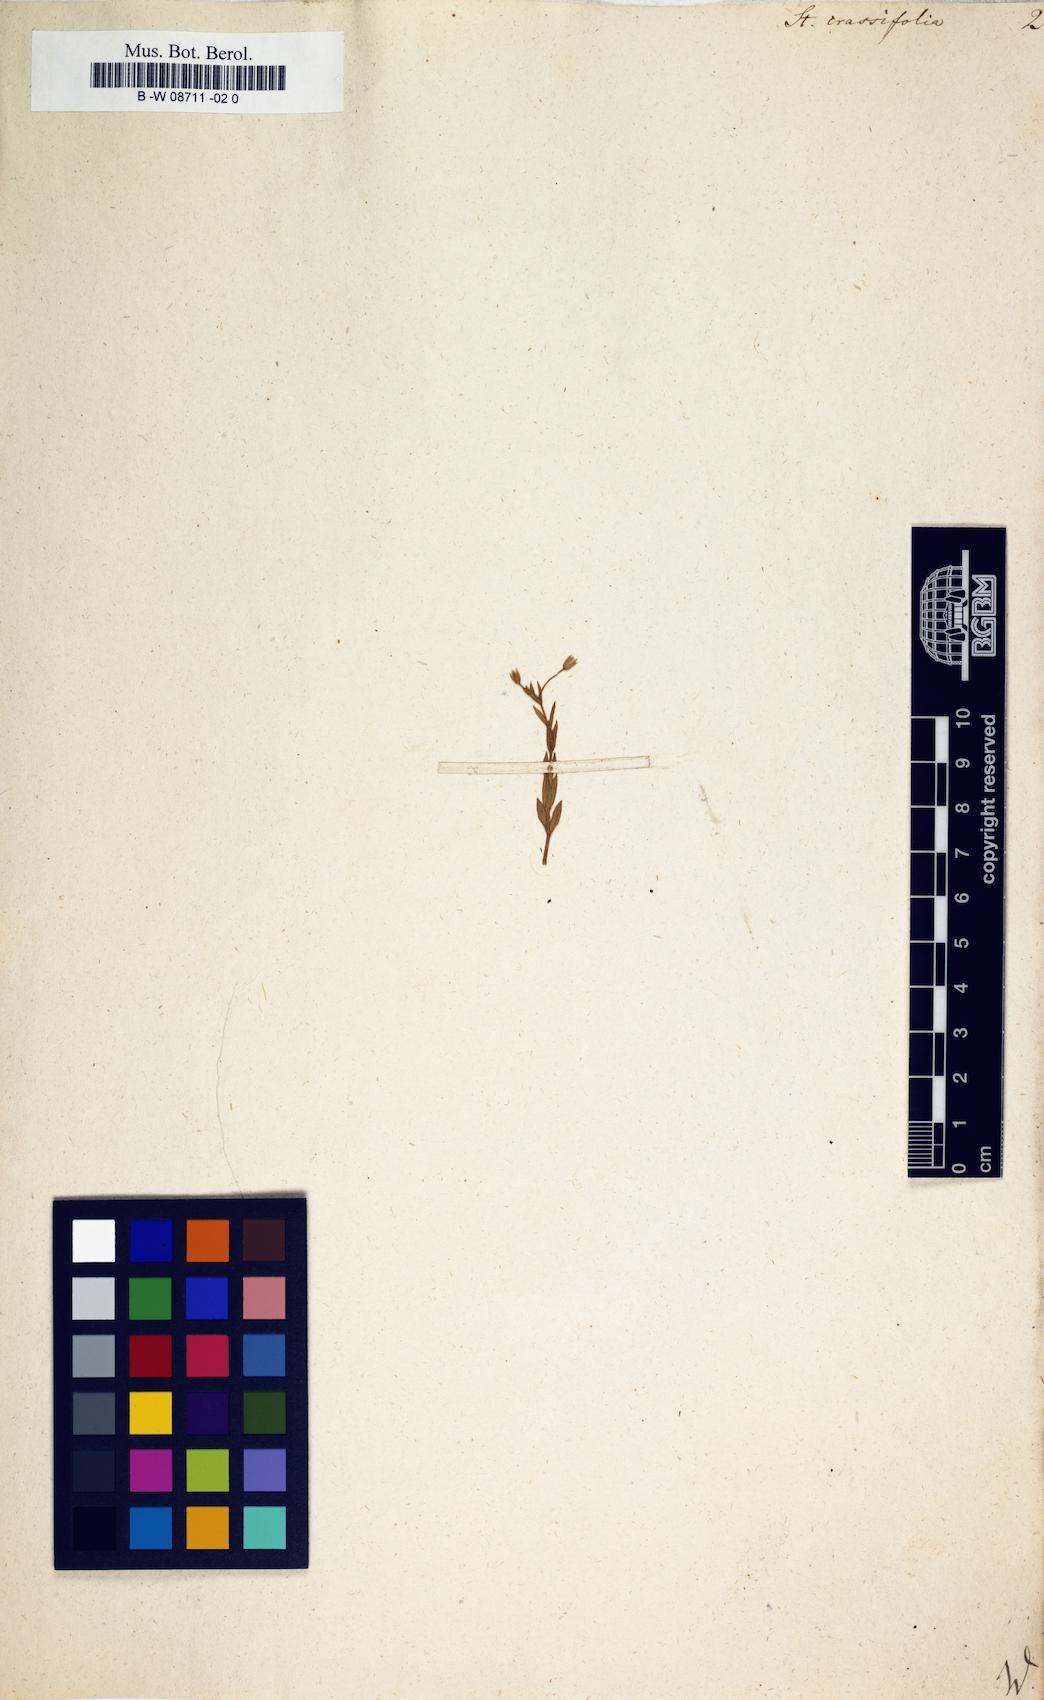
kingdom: Plantae
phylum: Tracheophyta
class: Magnoliopsida
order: Caryophyllales
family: Caryophyllaceae
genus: Stellaria
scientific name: Stellaria crassifolia
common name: Fleshy starwort
